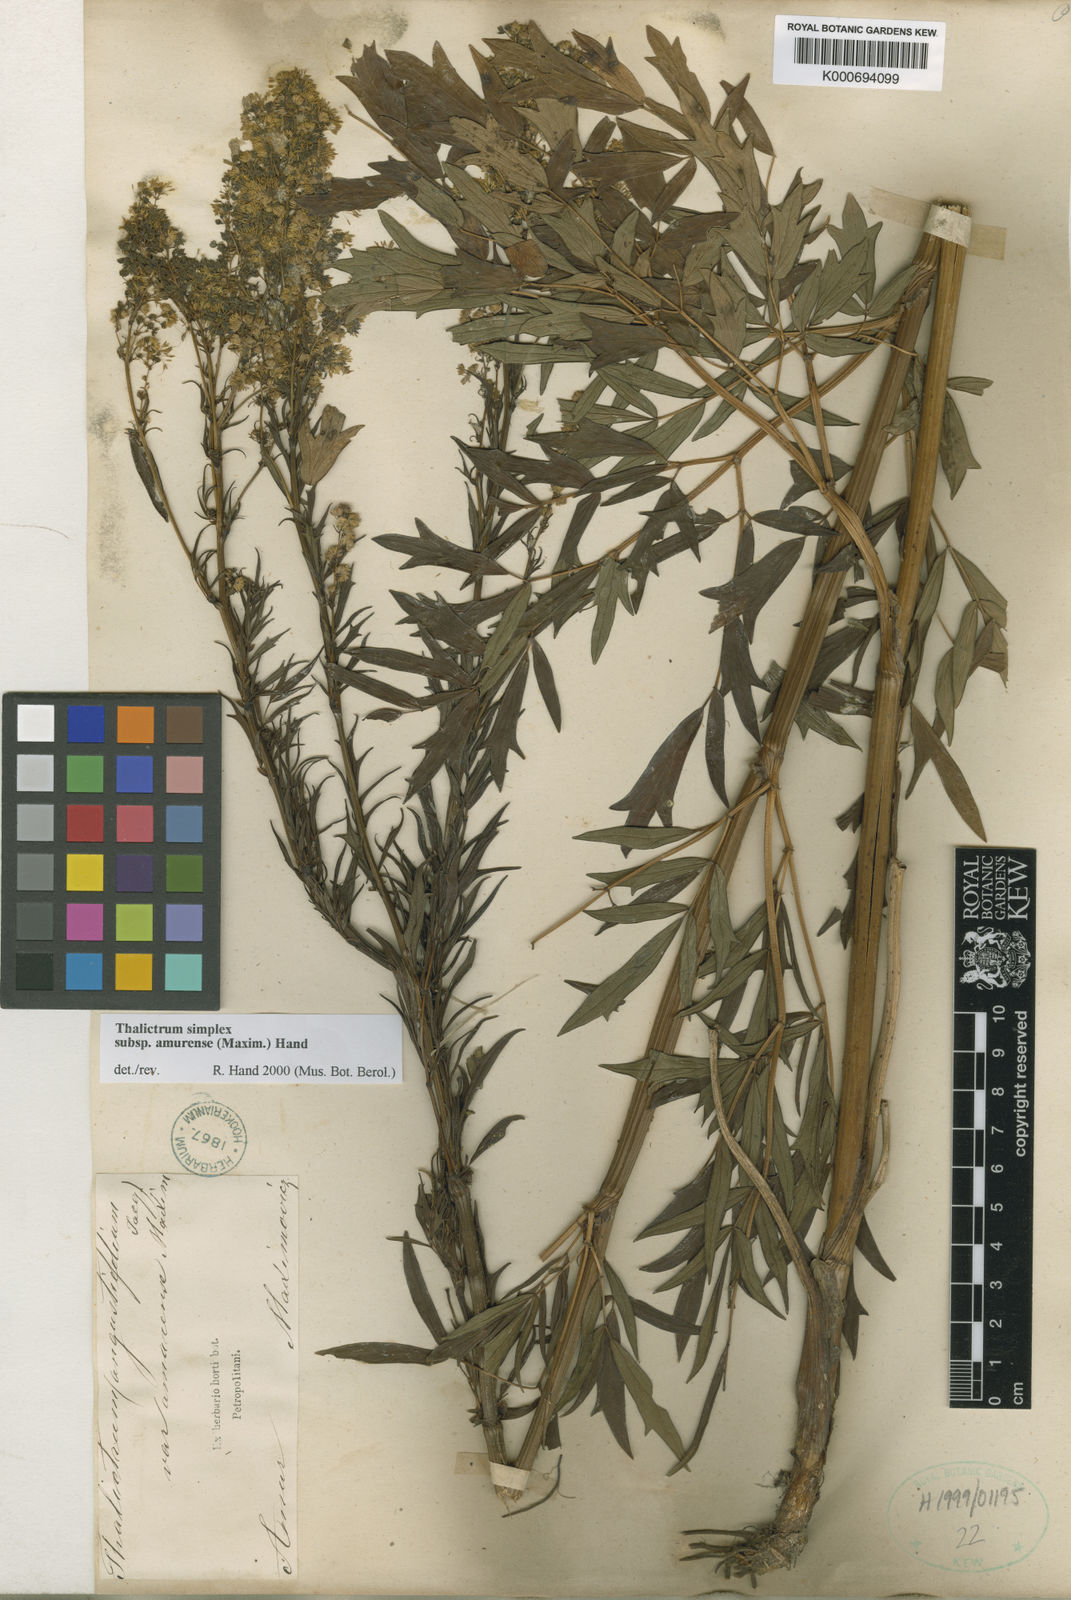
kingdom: Plantae
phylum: Tracheophyta
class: Magnoliopsida
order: Ranunculales
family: Ranunculaceae
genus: Thalictrum
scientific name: Thalictrum minus
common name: Lesser meadow-rue
